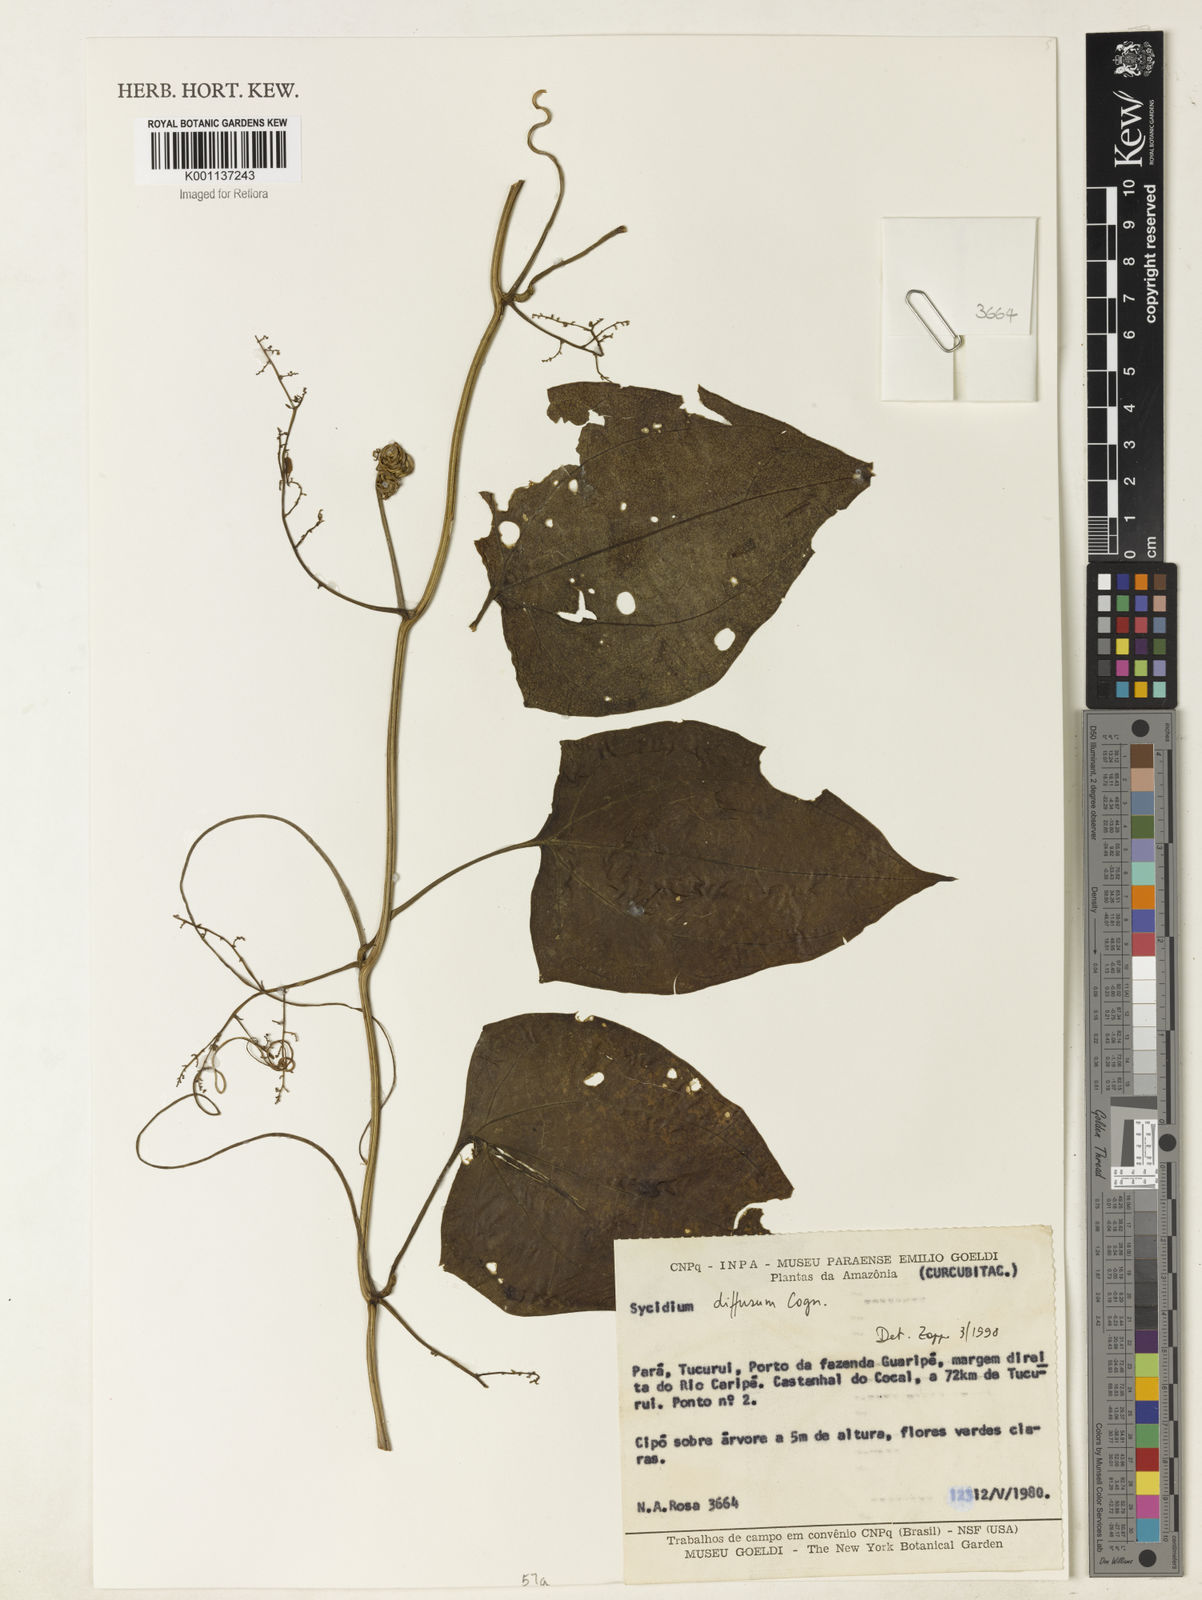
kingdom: Plantae
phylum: Tracheophyta
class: Magnoliopsida
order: Cucurbitales
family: Cucurbitaceae
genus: Sicydium
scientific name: Sicydium diffusum
